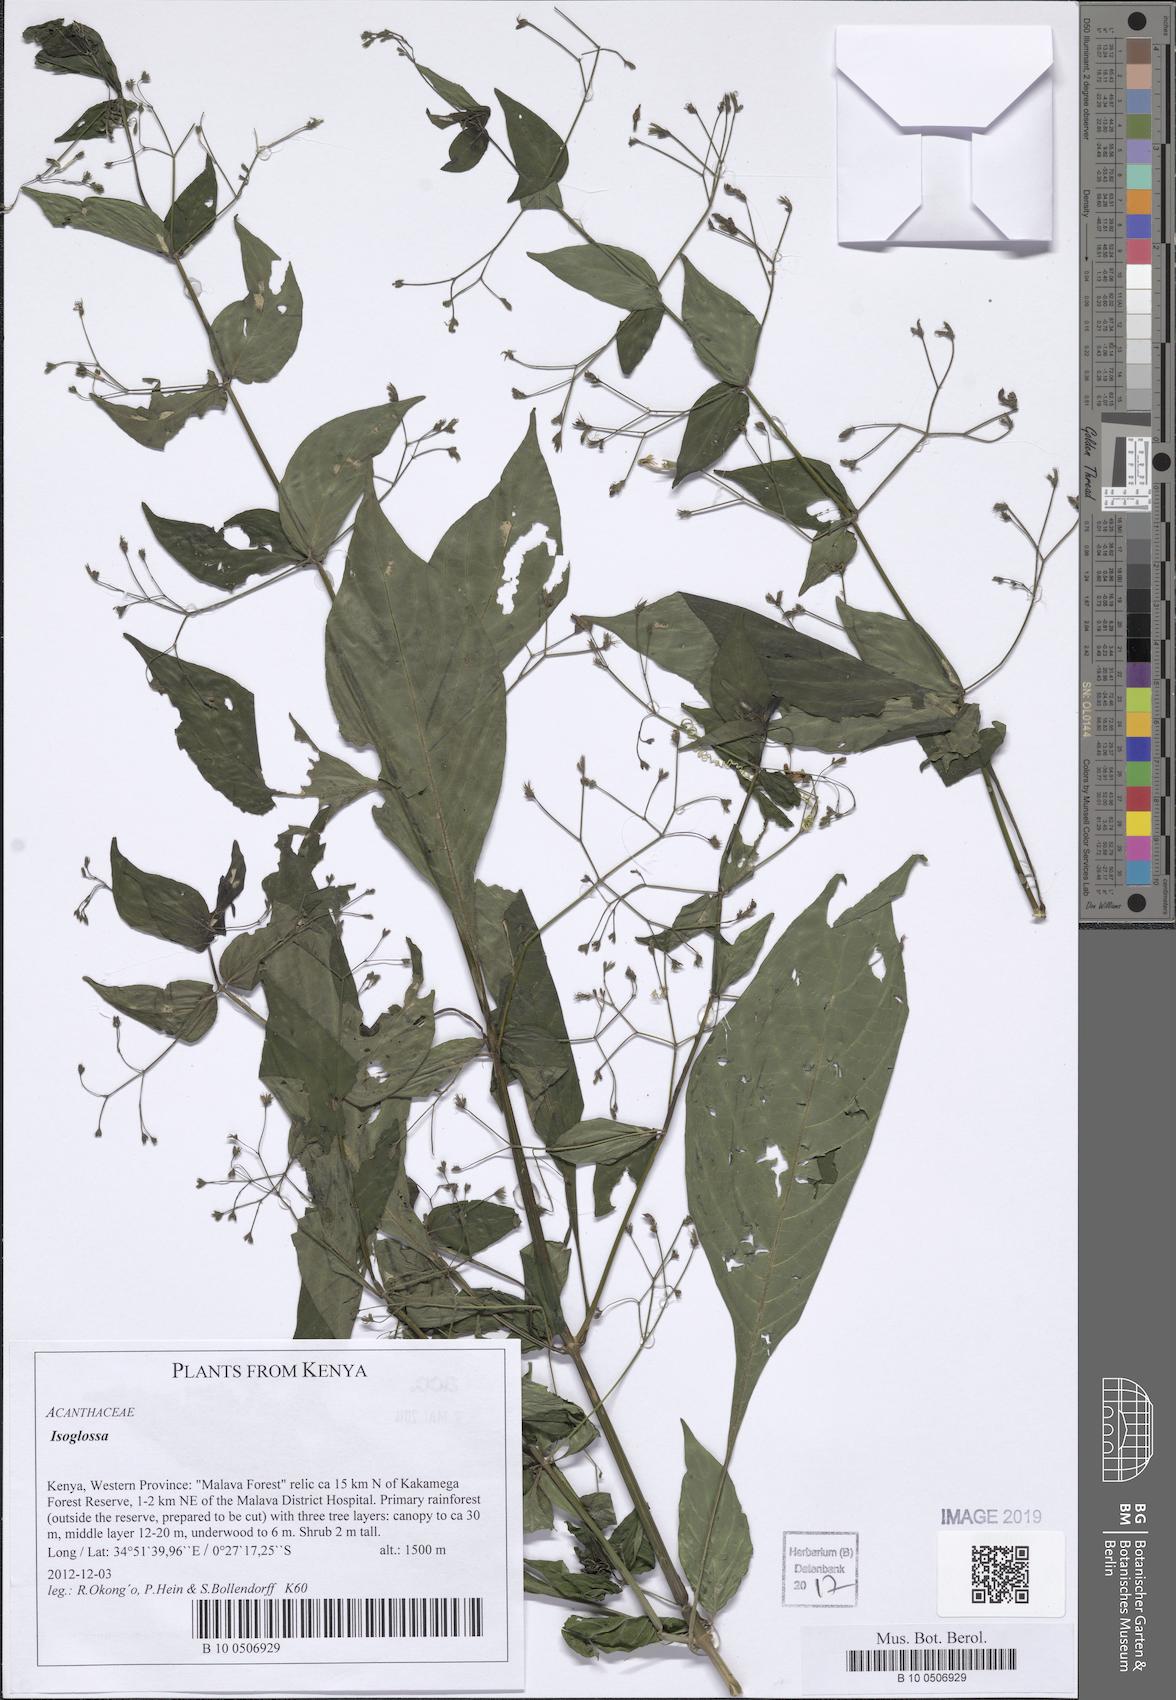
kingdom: Plantae
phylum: Tracheophyta
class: Magnoliopsida
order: Lamiales
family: Acanthaceae
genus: Isoglossa
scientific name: Isoglossa
